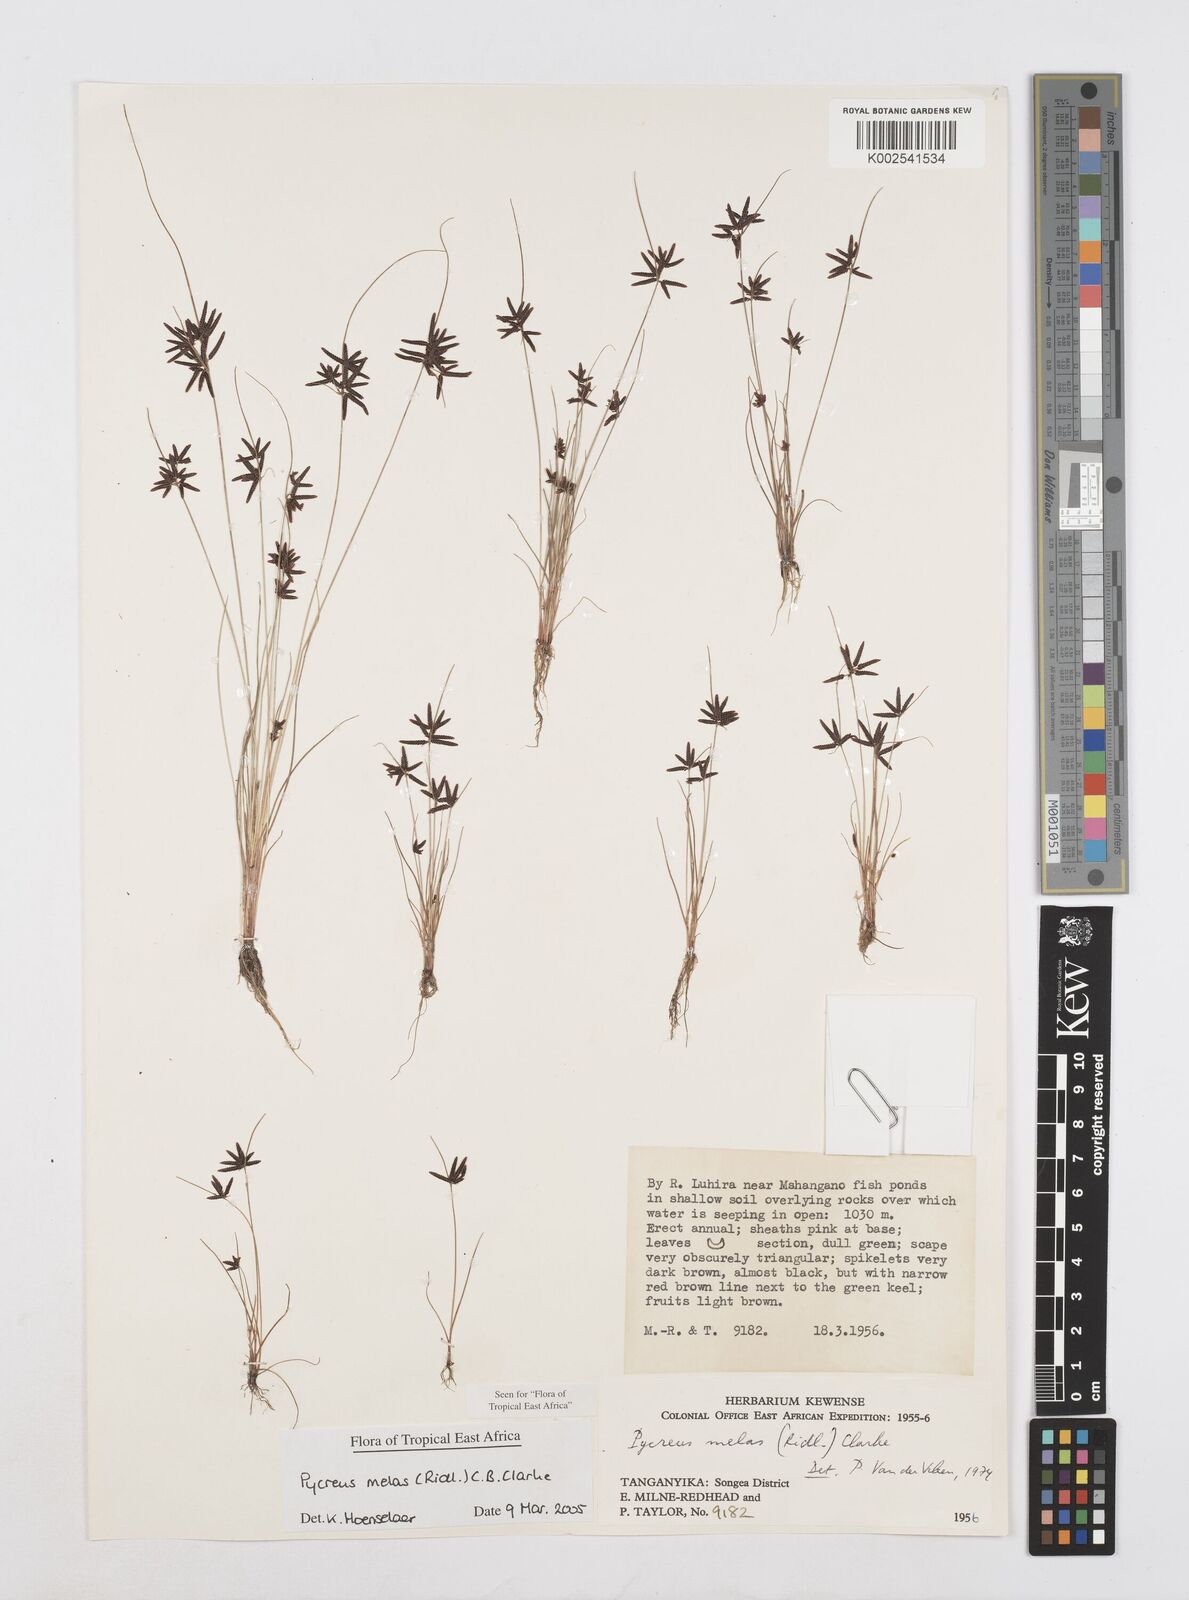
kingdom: Plantae
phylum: Tracheophyta
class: Liliopsida
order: Poales
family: Cyperaceae
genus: Cyperus
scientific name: Cyperus melas
